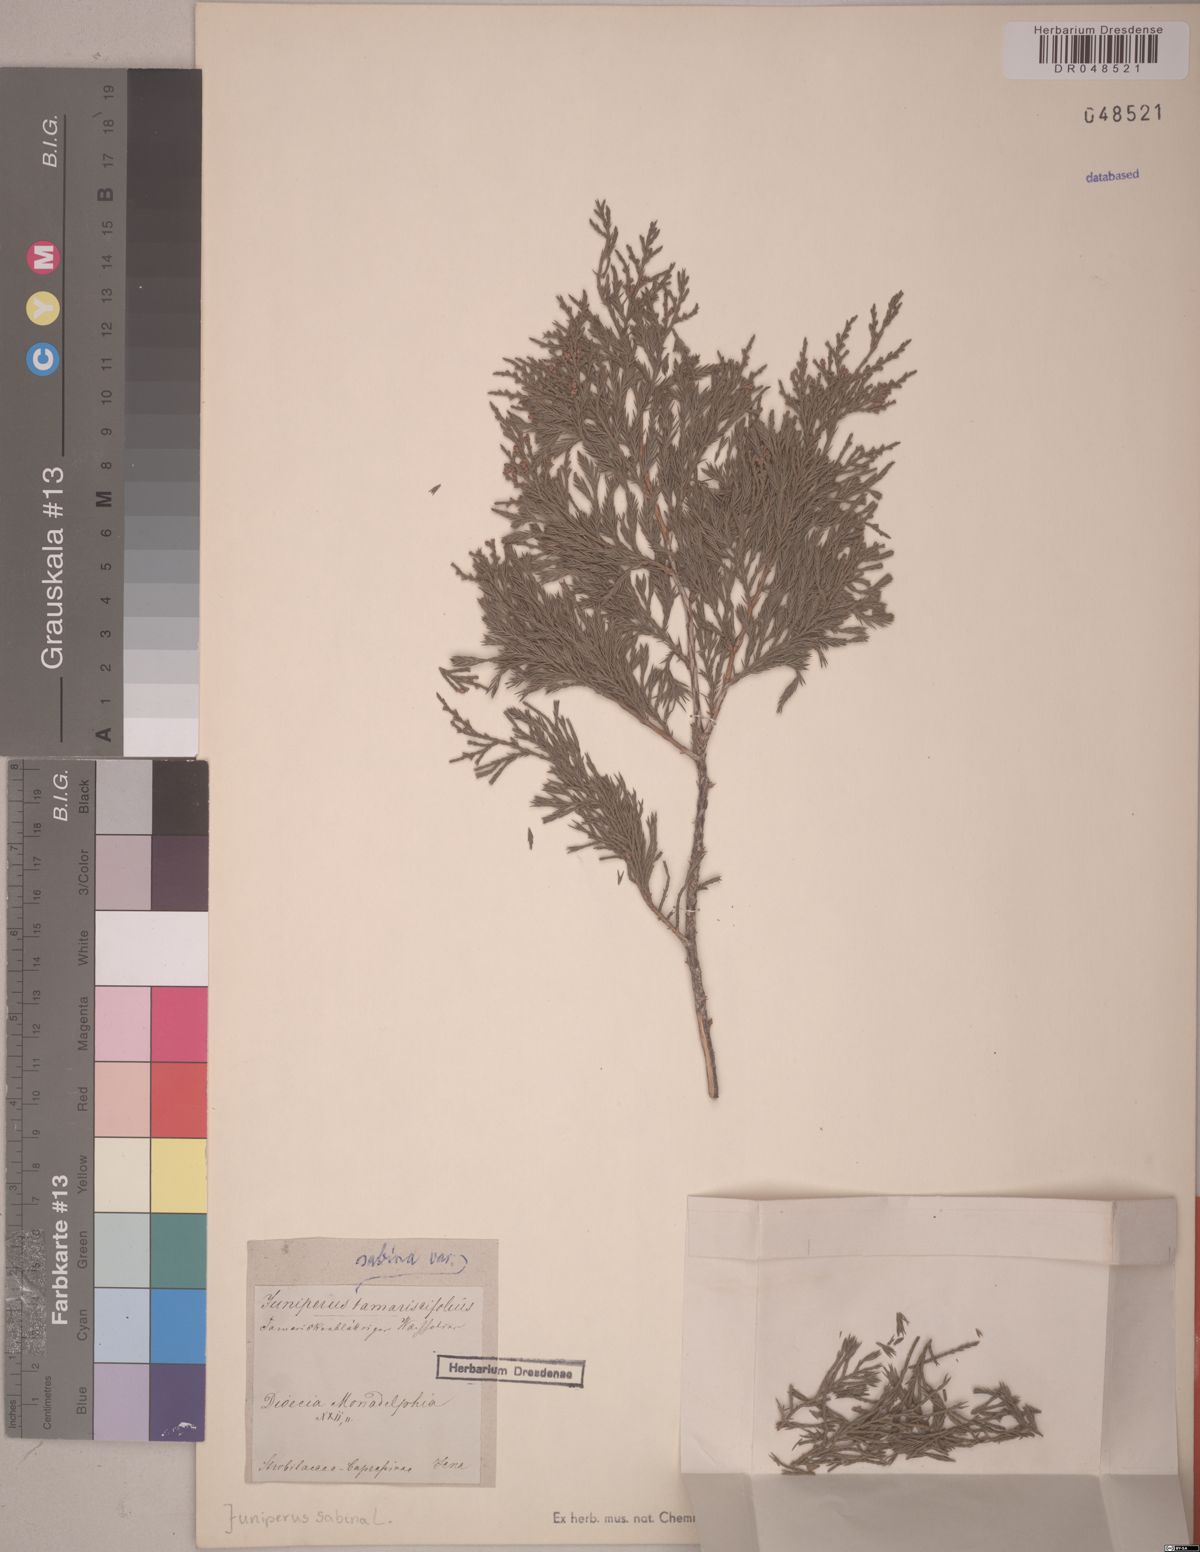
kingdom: Plantae
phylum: Tracheophyta
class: Pinopsida
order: Pinales
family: Cupressaceae
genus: Juniperus
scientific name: Juniperus sabina
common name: Savin
